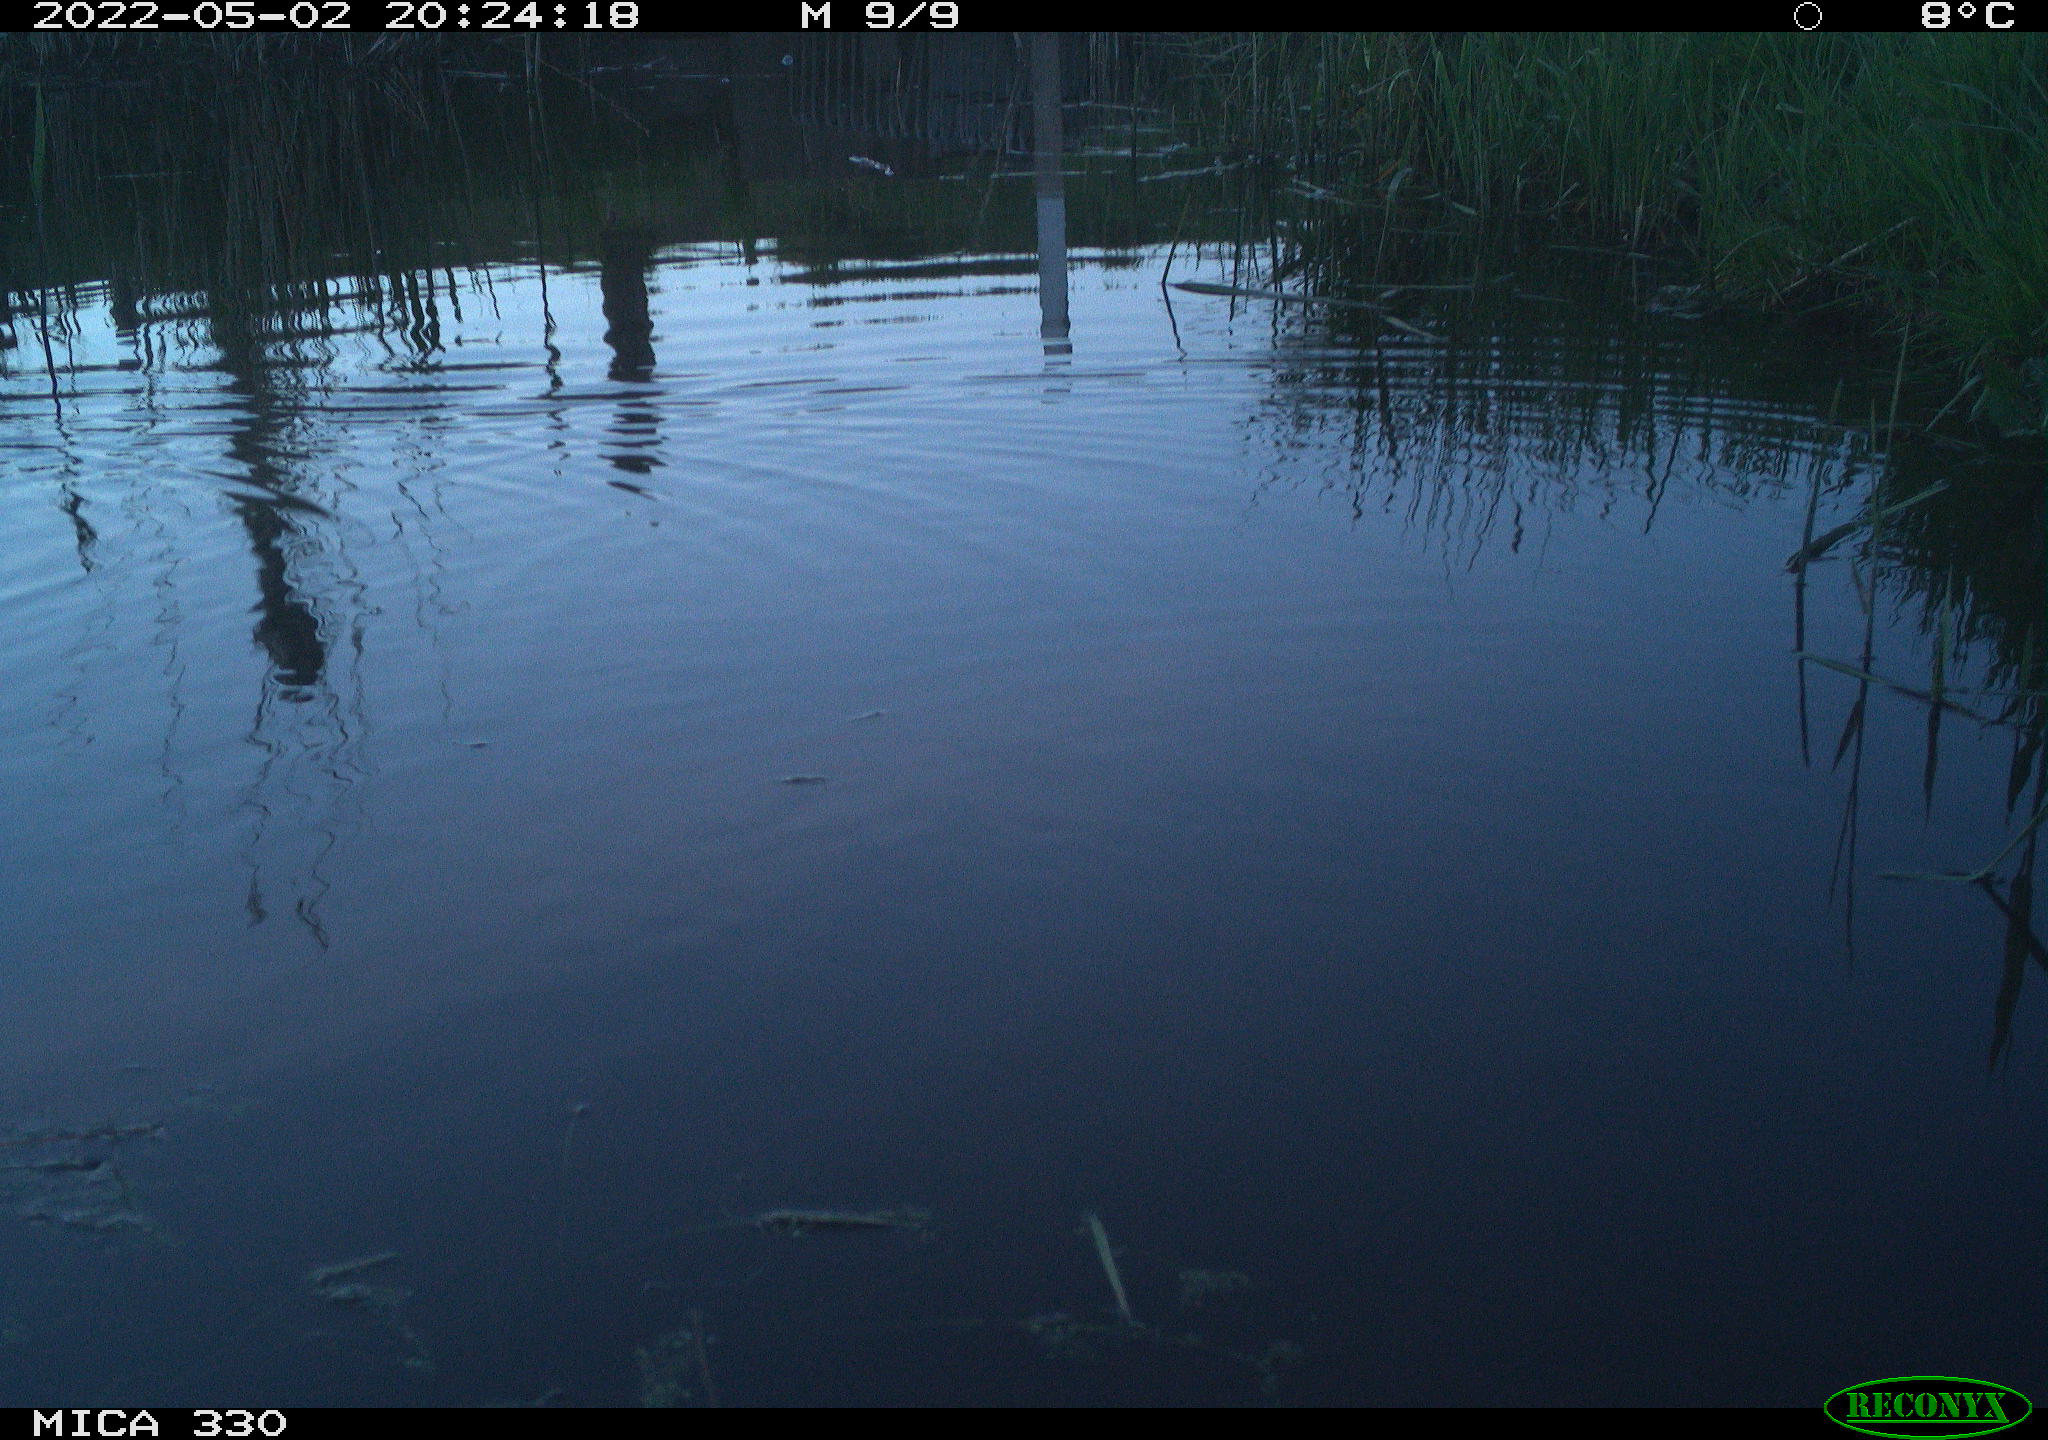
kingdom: Animalia
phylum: Chordata
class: Aves
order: Gruiformes
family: Rallidae
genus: Gallinula
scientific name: Gallinula chloropus
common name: Common moorhen
